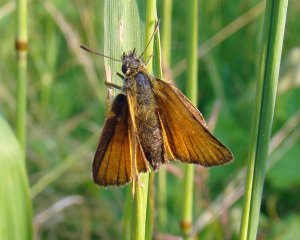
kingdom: Animalia
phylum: Arthropoda
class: Insecta
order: Lepidoptera
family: Hesperiidae
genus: Thymelicus
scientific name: Thymelicus lineola
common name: European Skipper
